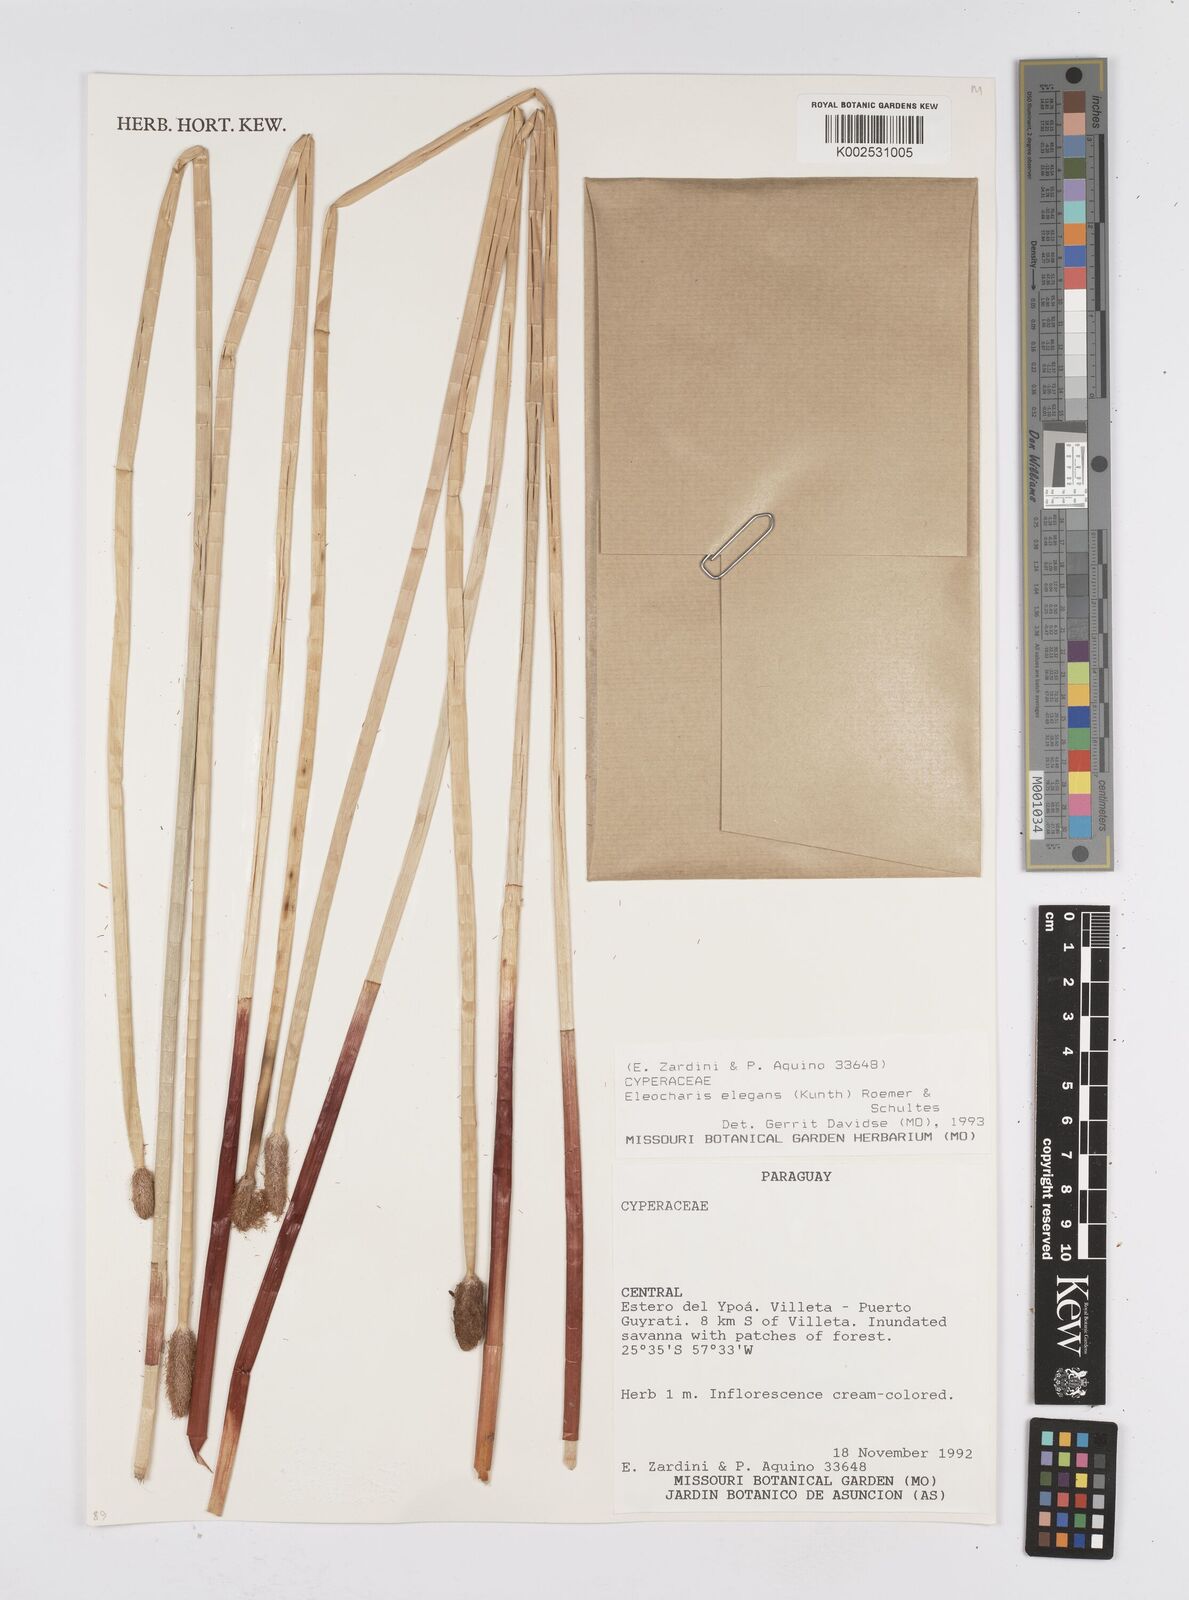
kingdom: Plantae
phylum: Tracheophyta
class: Liliopsida
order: Poales
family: Cyperaceae
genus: Eleocharis
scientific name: Eleocharis elegans
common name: Elegant spike-rush
